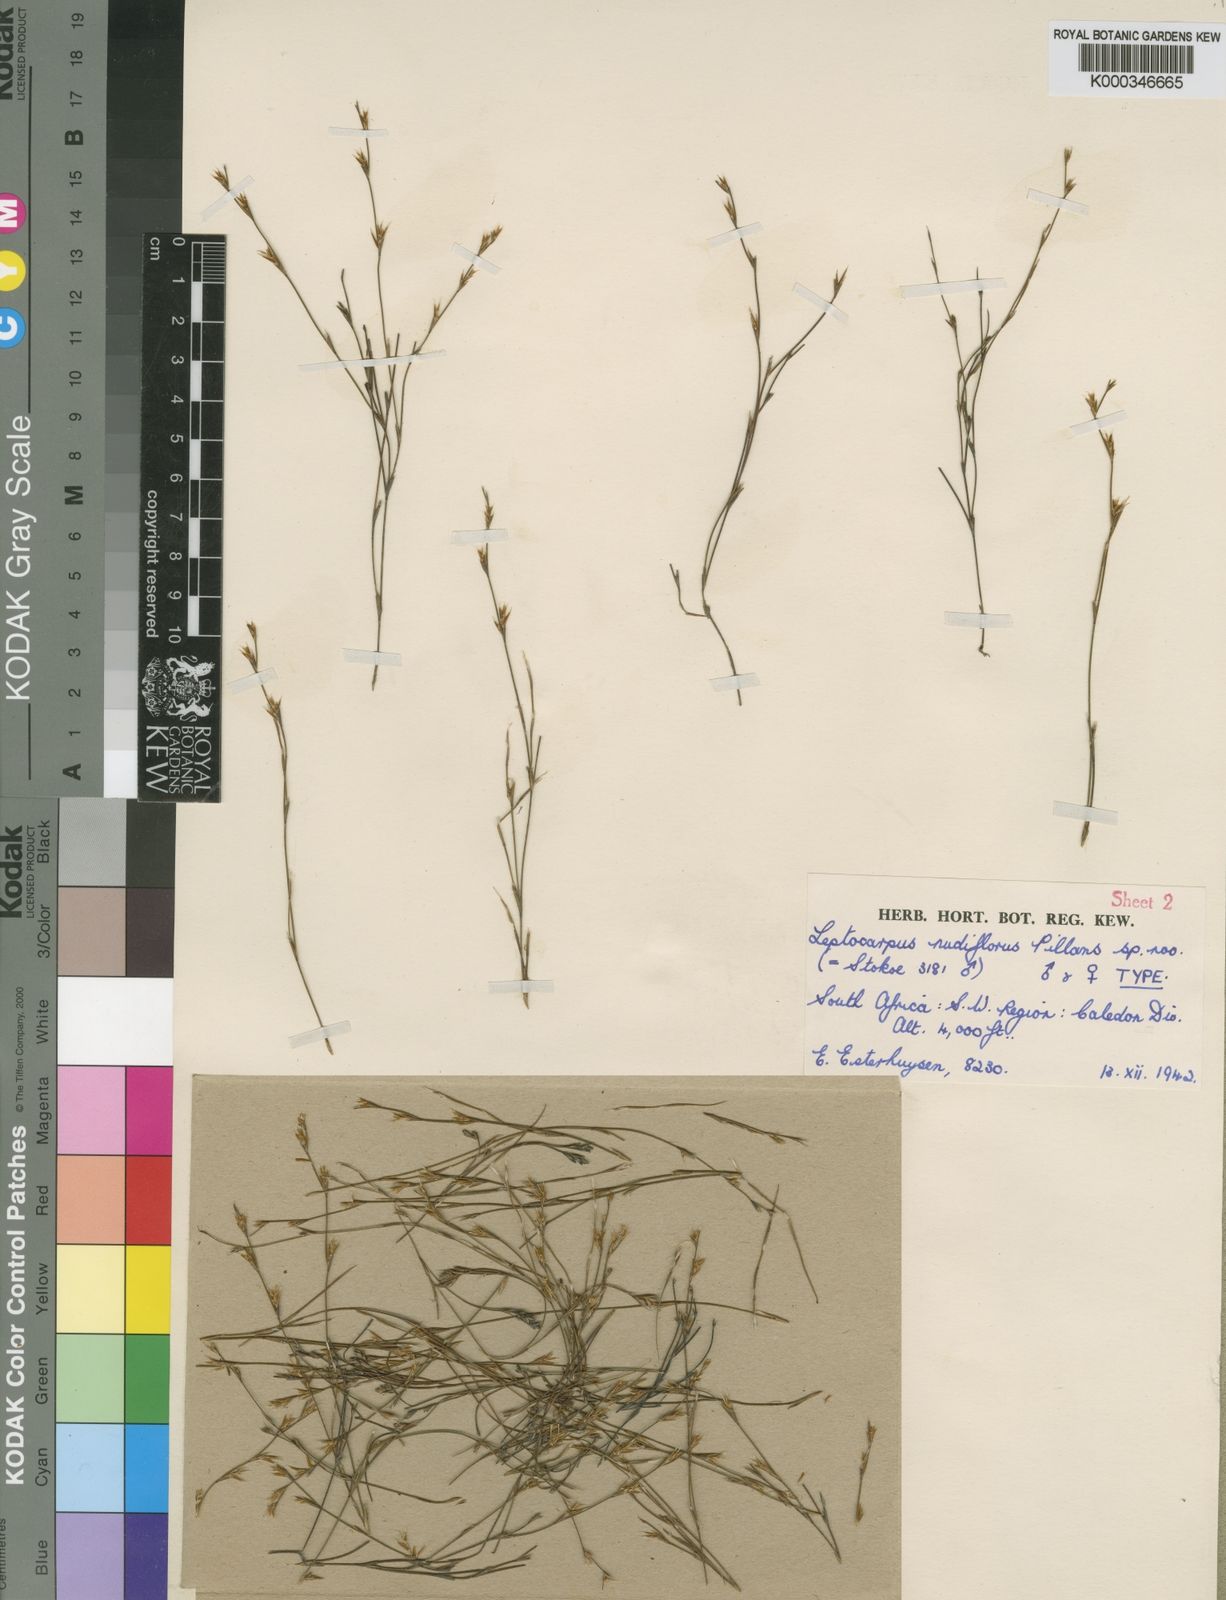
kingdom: Plantae
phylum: Tracheophyta
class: Liliopsida
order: Poales
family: Restionaceae
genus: Restio
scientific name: Restio nudiflorus
